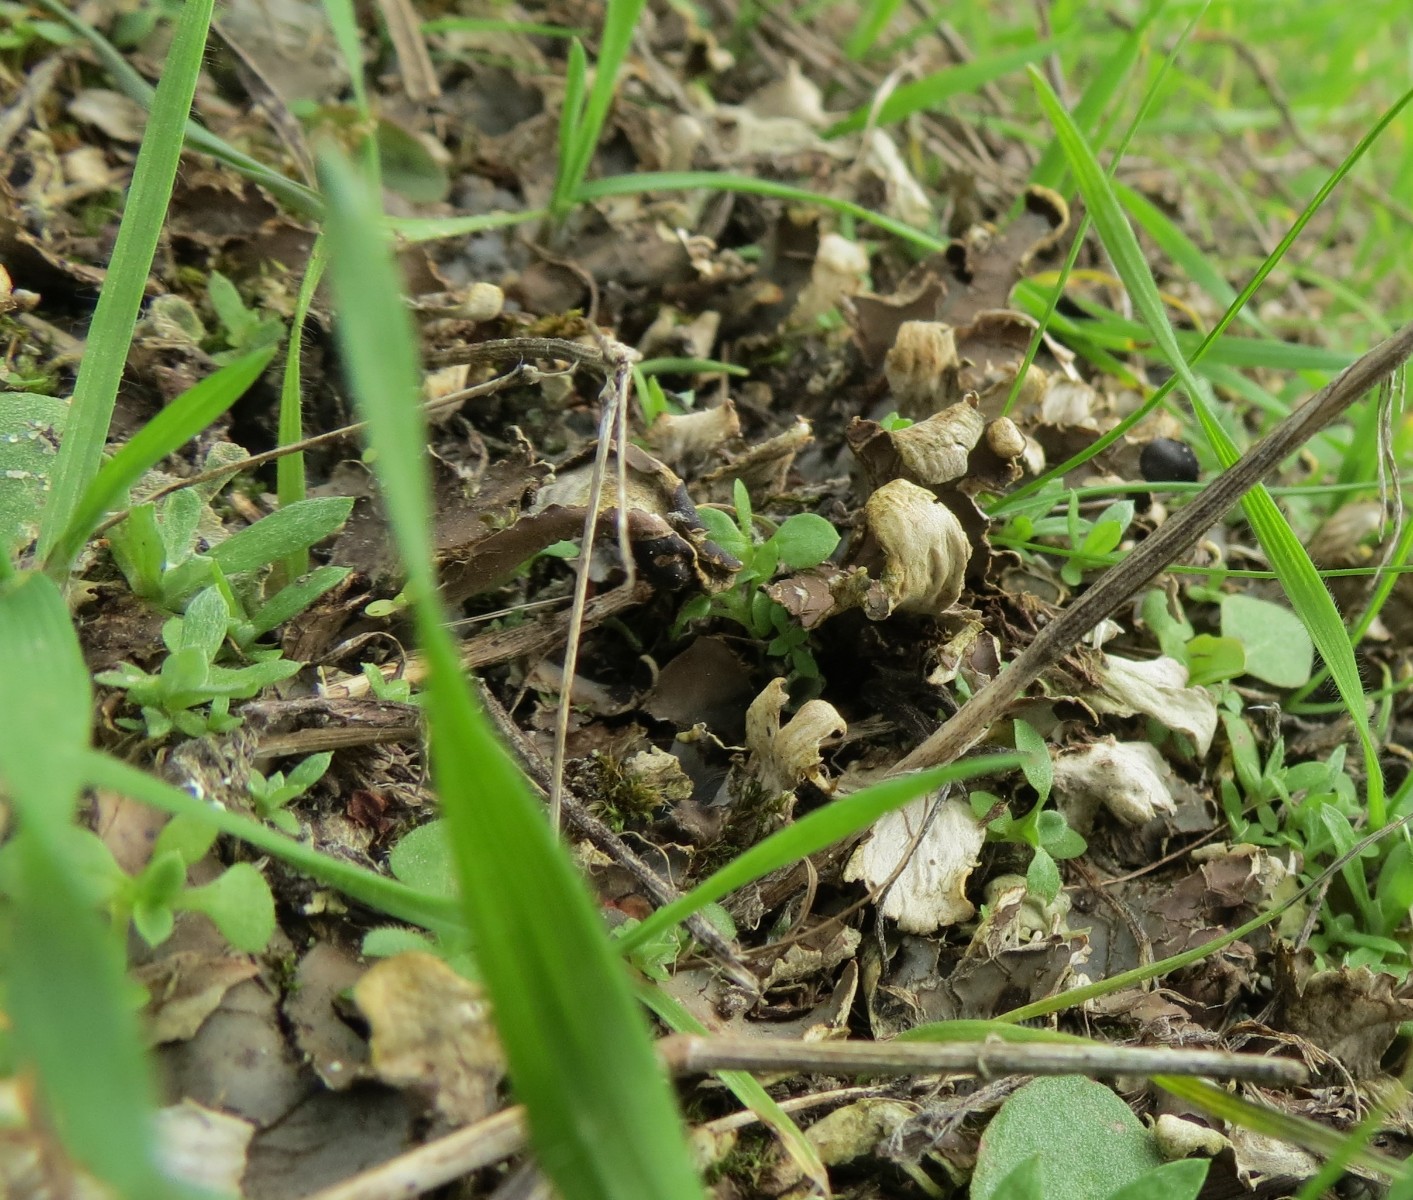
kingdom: Fungi
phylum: Ascomycota
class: Lecanoromycetes
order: Peltigerales
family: Peltigeraceae
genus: Peltigera
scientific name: Peltigera
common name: skjoldlav
